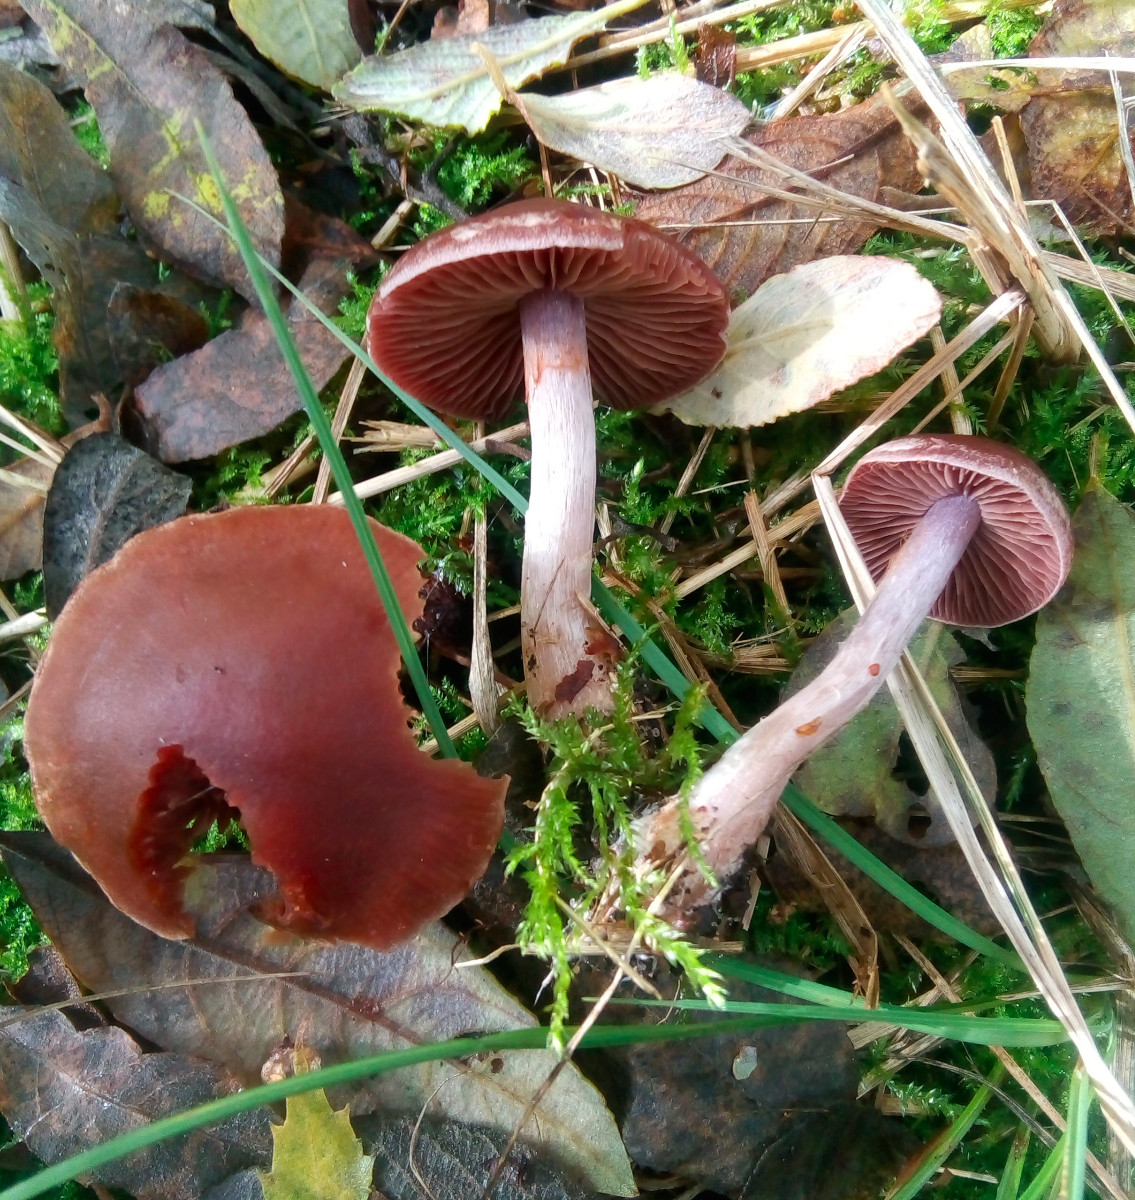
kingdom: Fungi
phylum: Basidiomycota
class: Agaricomycetes
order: Agaricales
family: Cortinariaceae
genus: Cortinarius
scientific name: Cortinarius saturninus
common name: brunviolet slørhat
